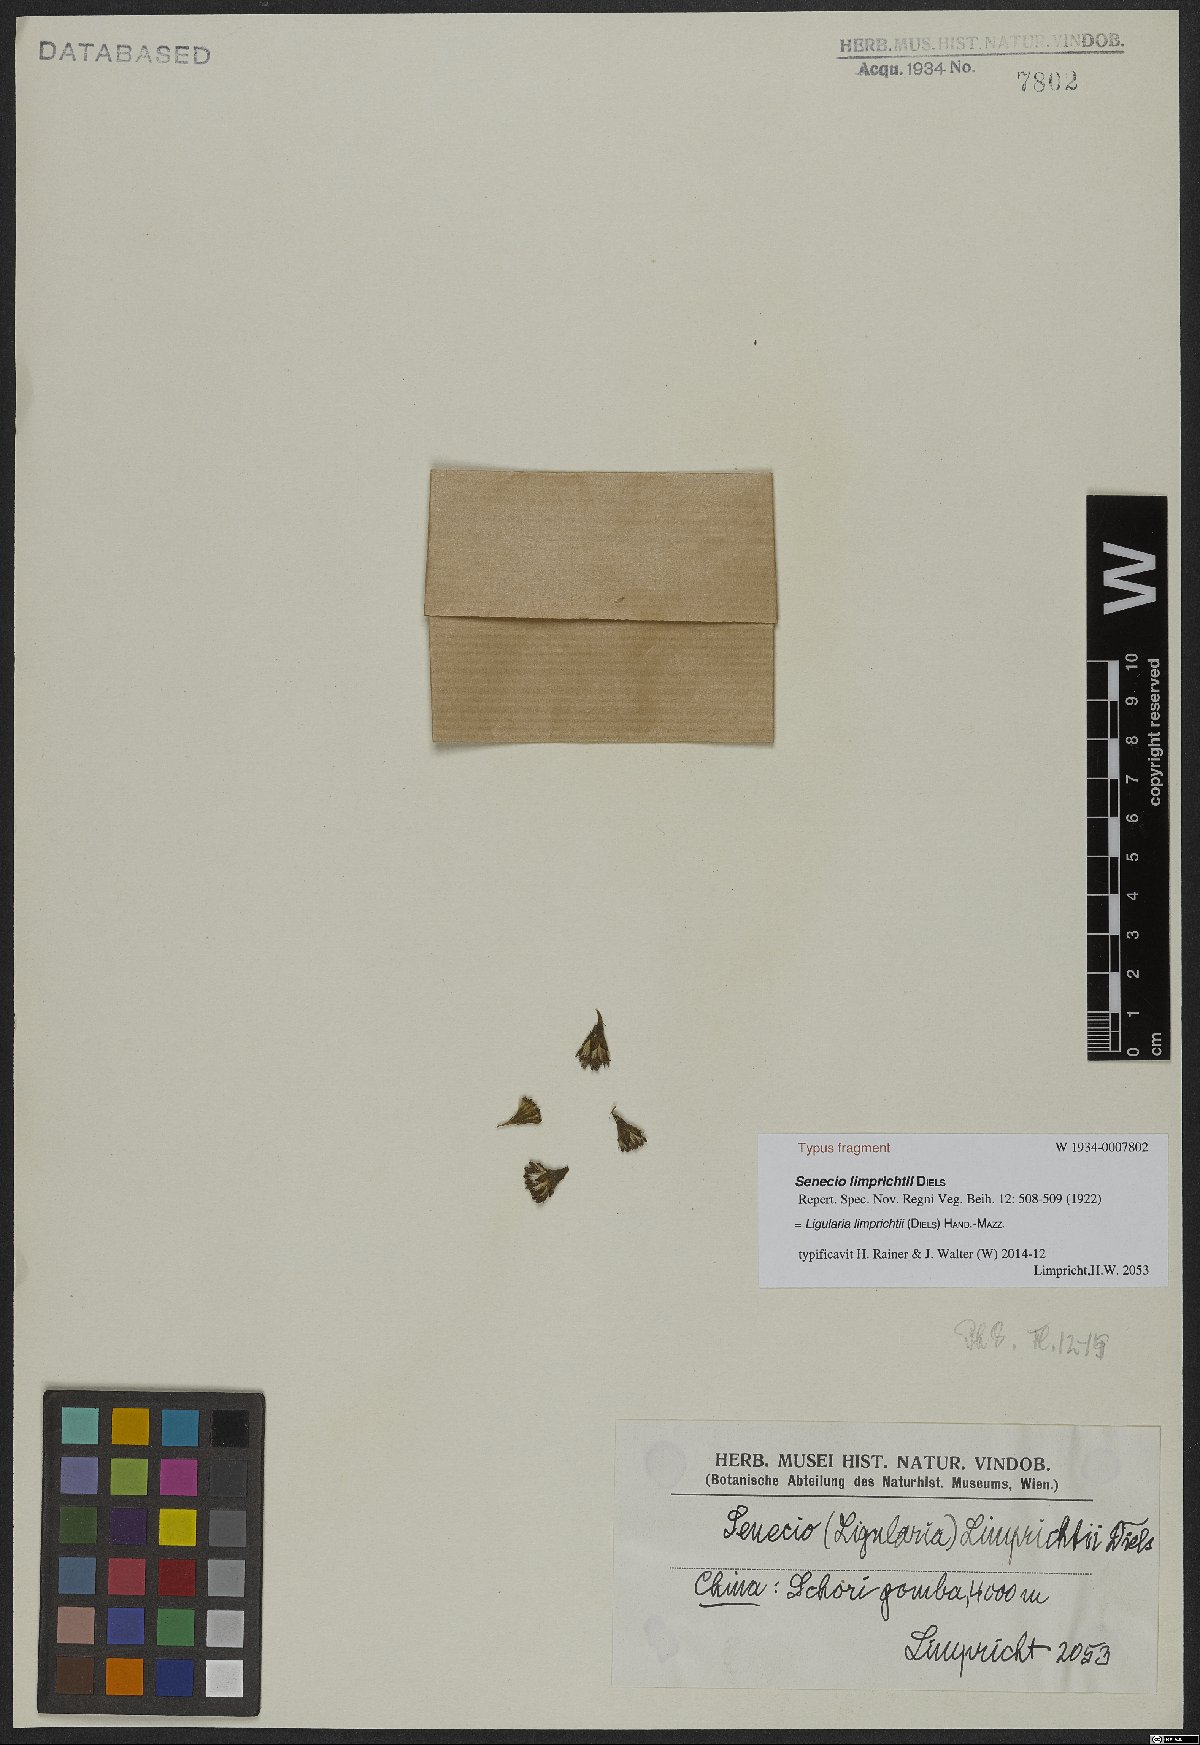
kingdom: Plantae
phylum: Tracheophyta
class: Magnoliopsida
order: Asterales
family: Asteraceae
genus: Ligularia
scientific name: Ligularia limprichtii
